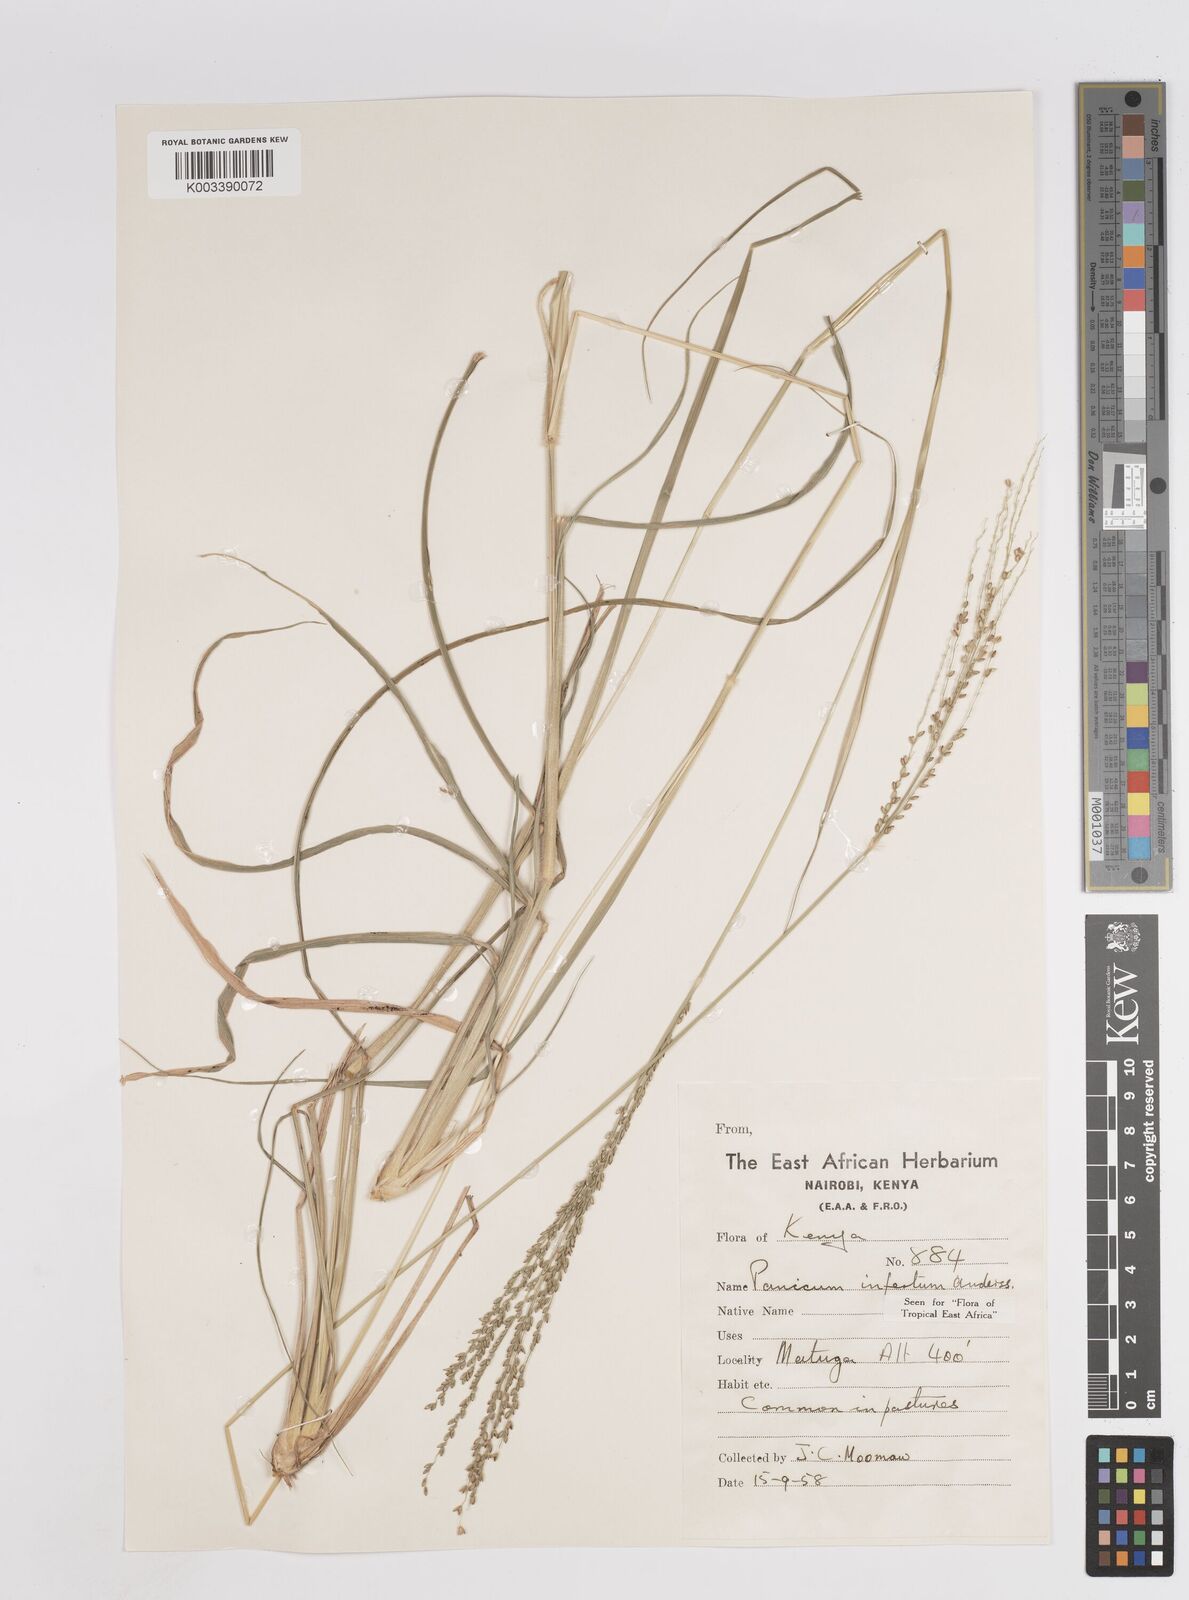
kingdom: Plantae
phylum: Tracheophyta
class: Liliopsida
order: Poales
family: Poaceae
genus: Megathyrsus
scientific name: Megathyrsus infestus
